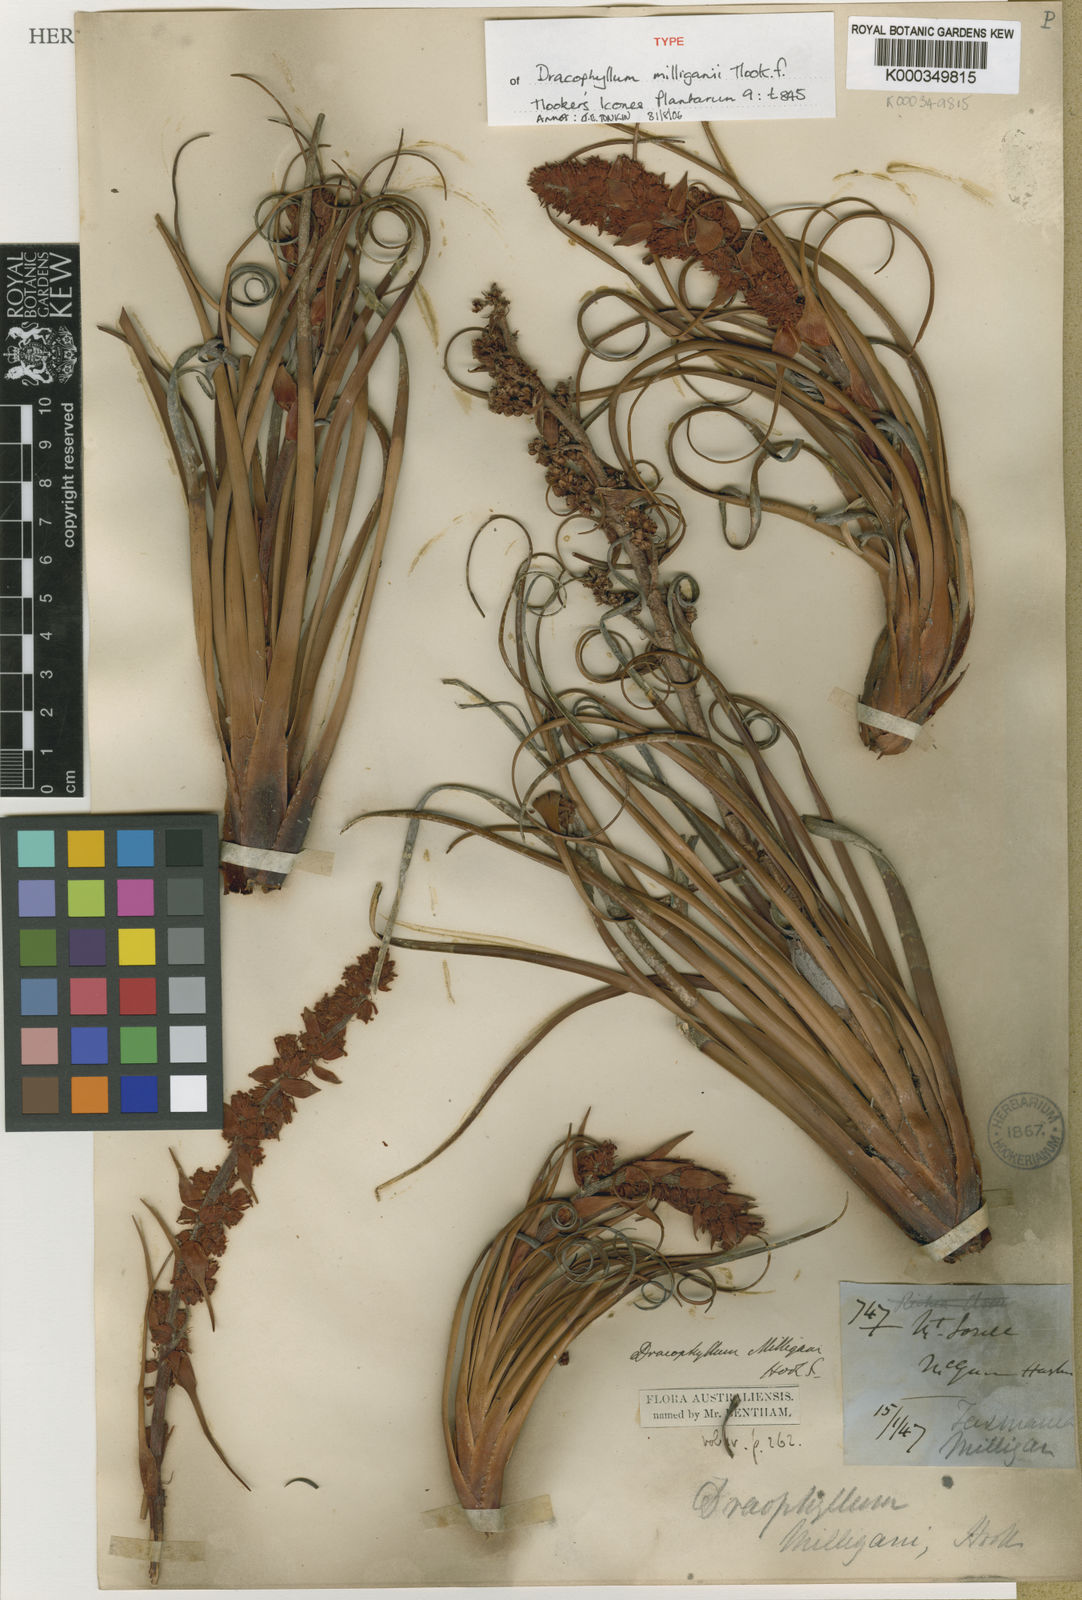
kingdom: Plantae
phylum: Tracheophyta
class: Magnoliopsida
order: Ericales
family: Ericaceae
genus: Dracophyllum
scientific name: Dracophyllum milliganii
